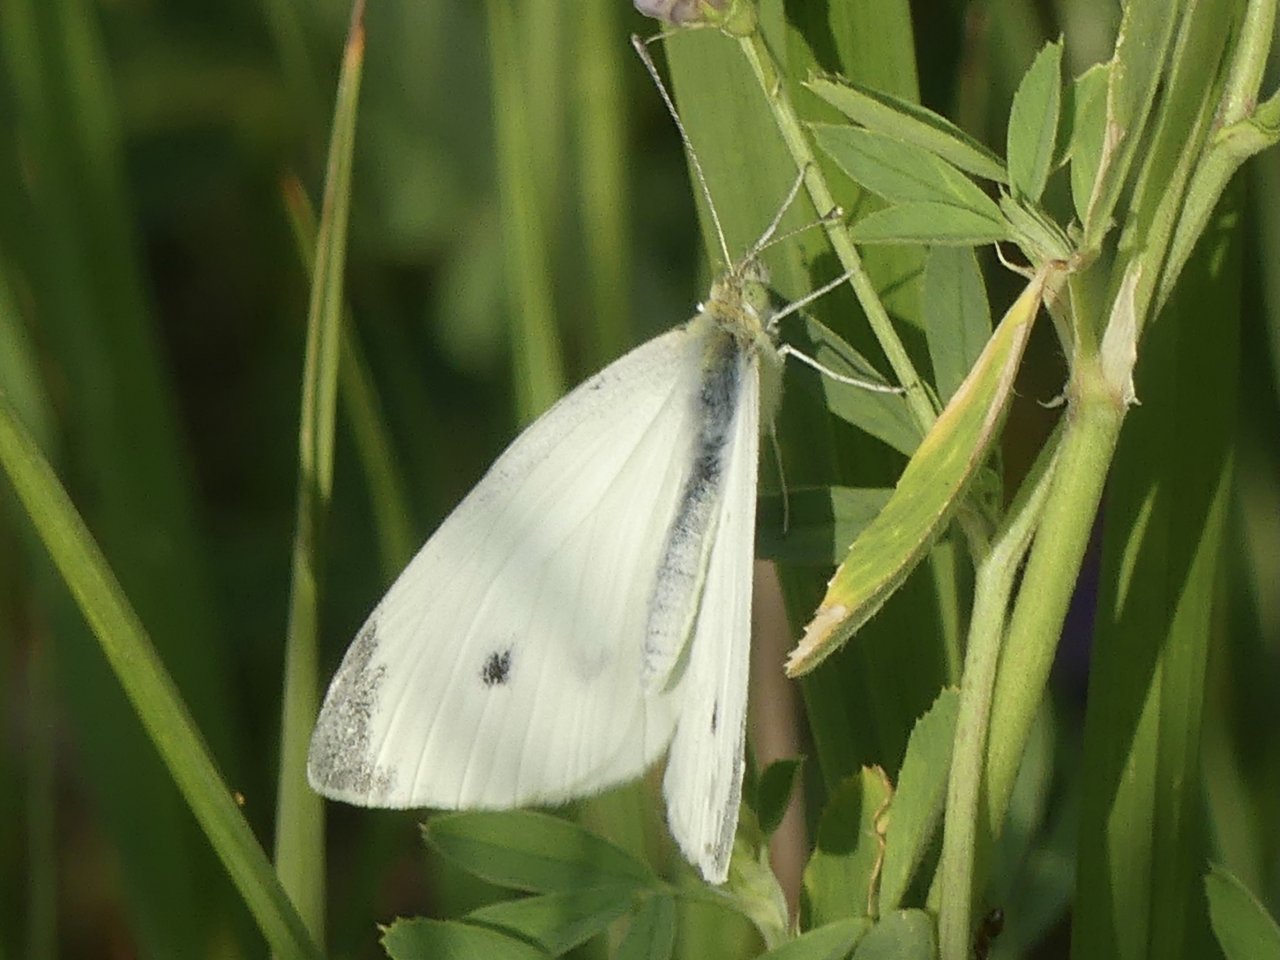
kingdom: Animalia
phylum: Arthropoda
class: Insecta
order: Lepidoptera
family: Pieridae
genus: Pieris
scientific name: Pieris rapae
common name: Cabbage White
